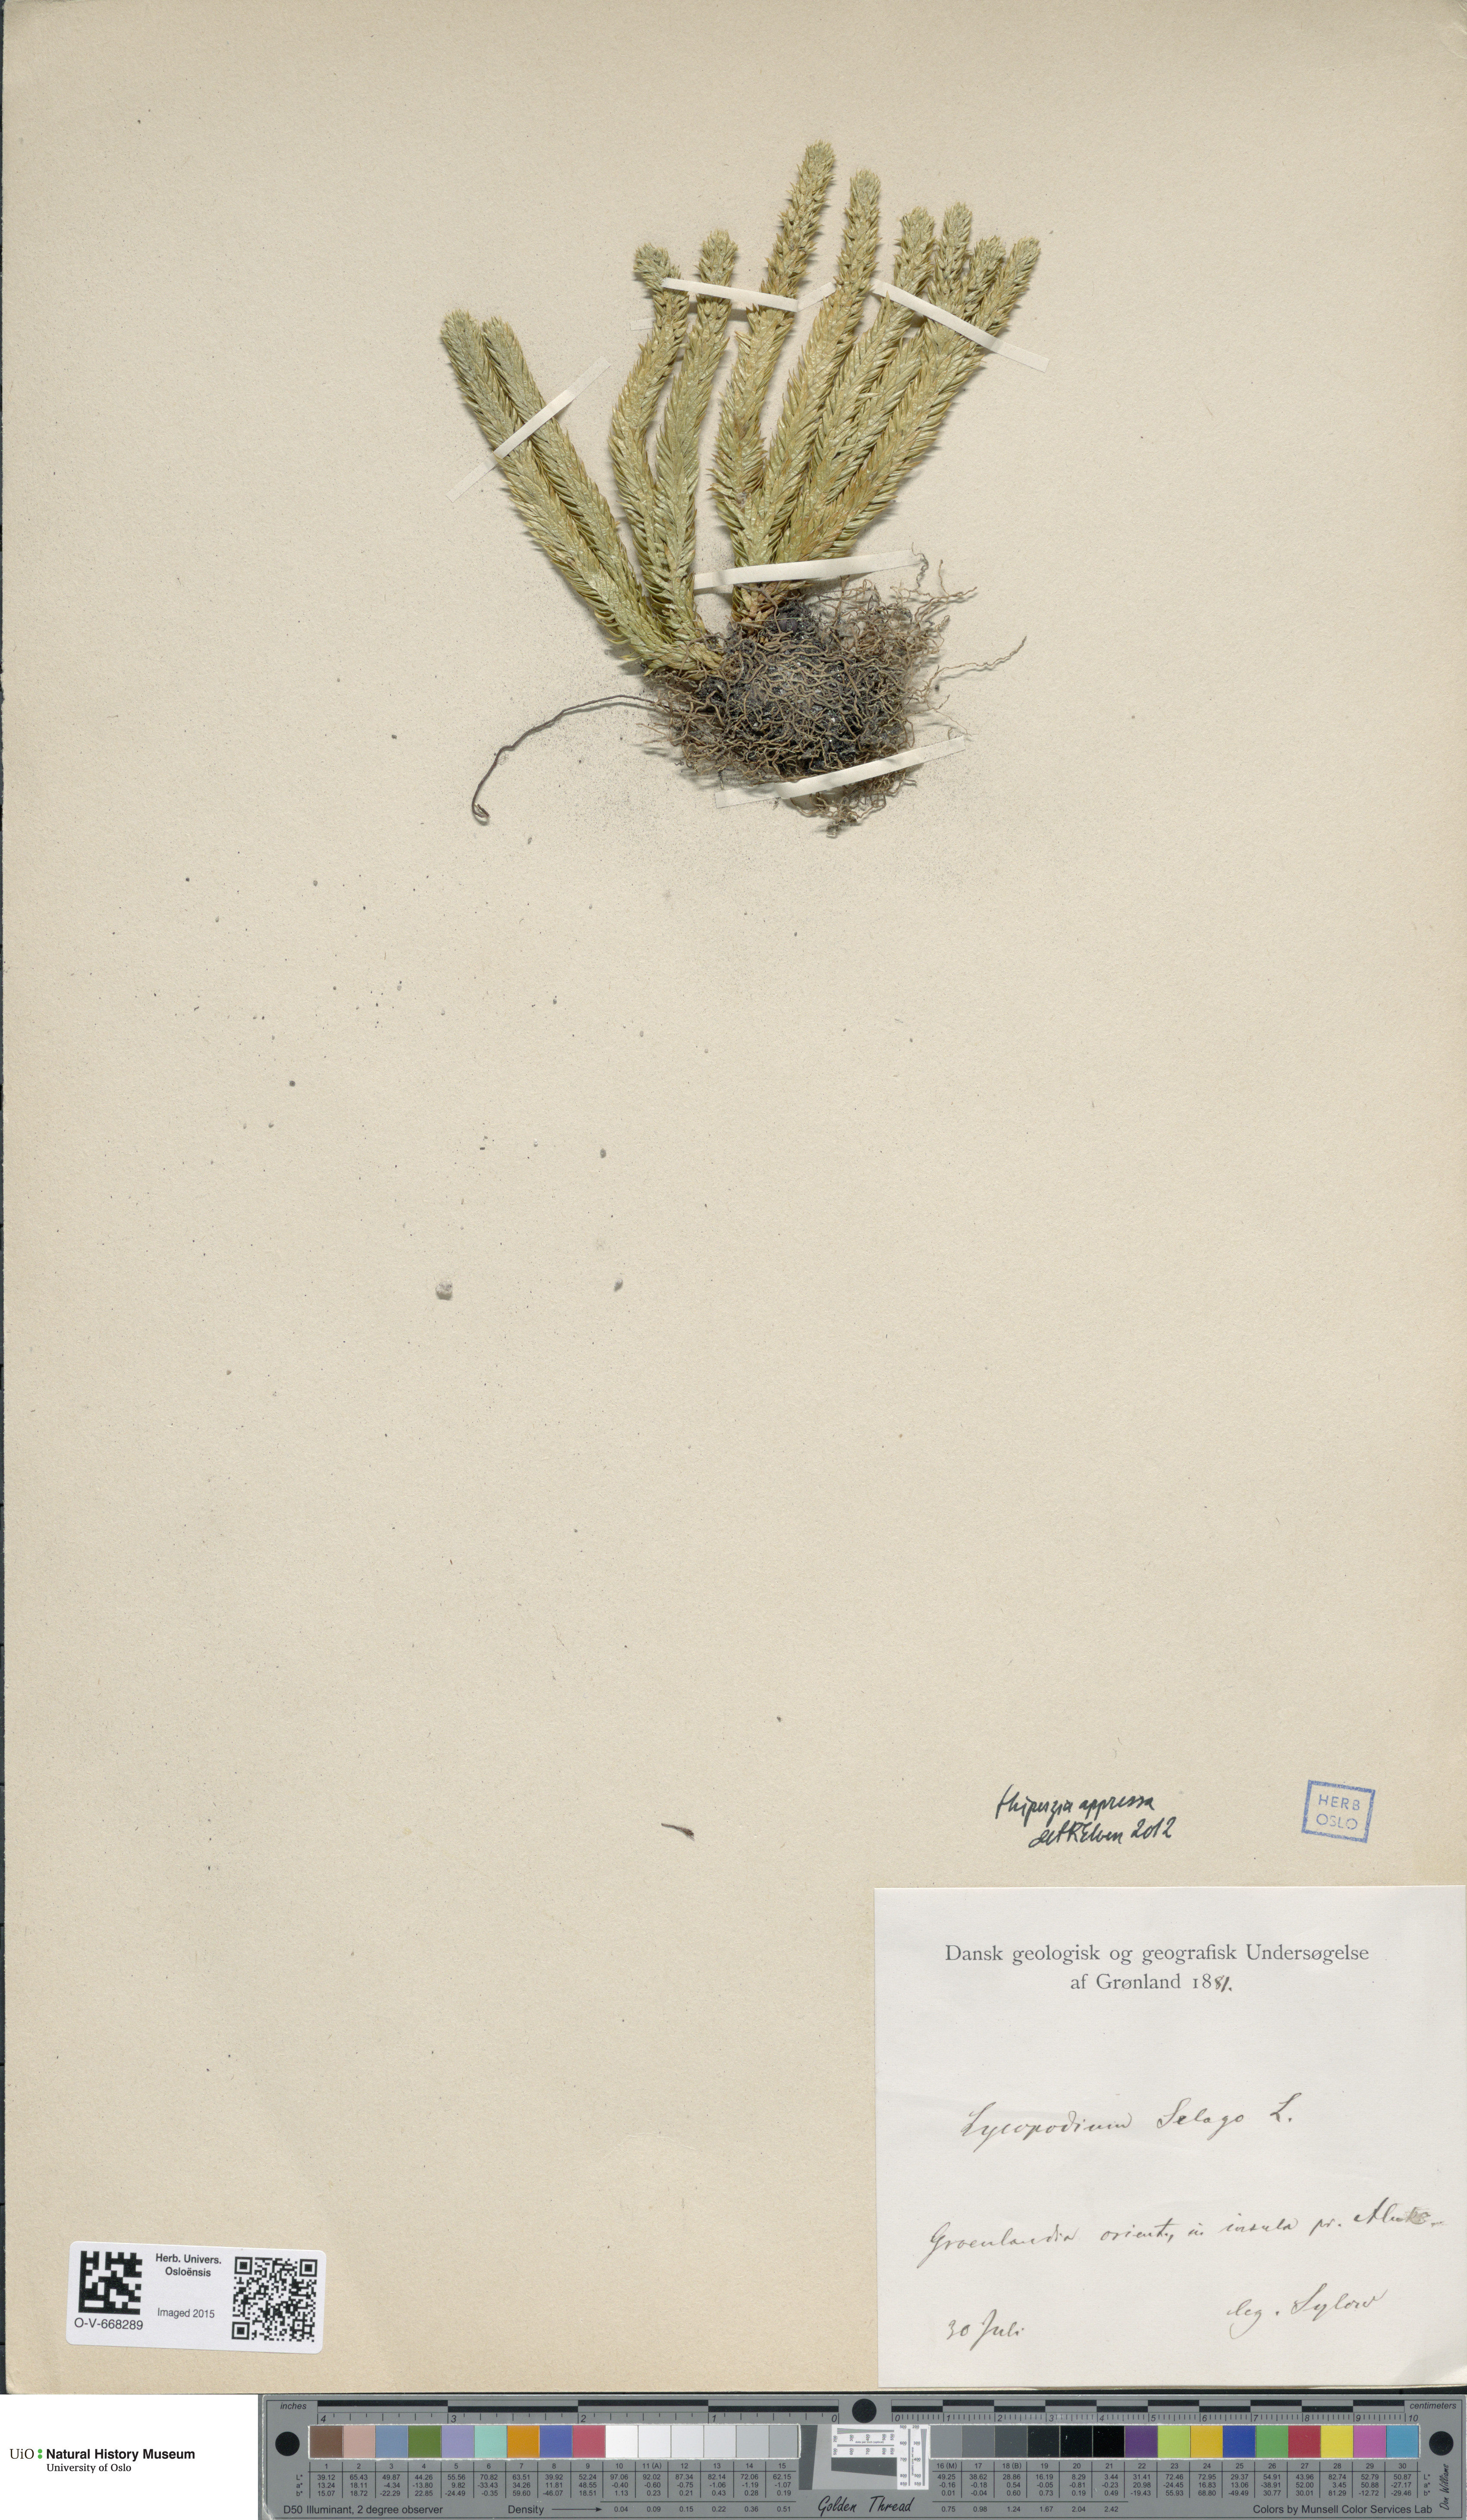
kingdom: Plantae
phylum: Tracheophyta
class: Lycopodiopsida
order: Lycopodiales
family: Lycopodiaceae
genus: Huperzia
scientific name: Huperzia selago
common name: Northern firmoss
